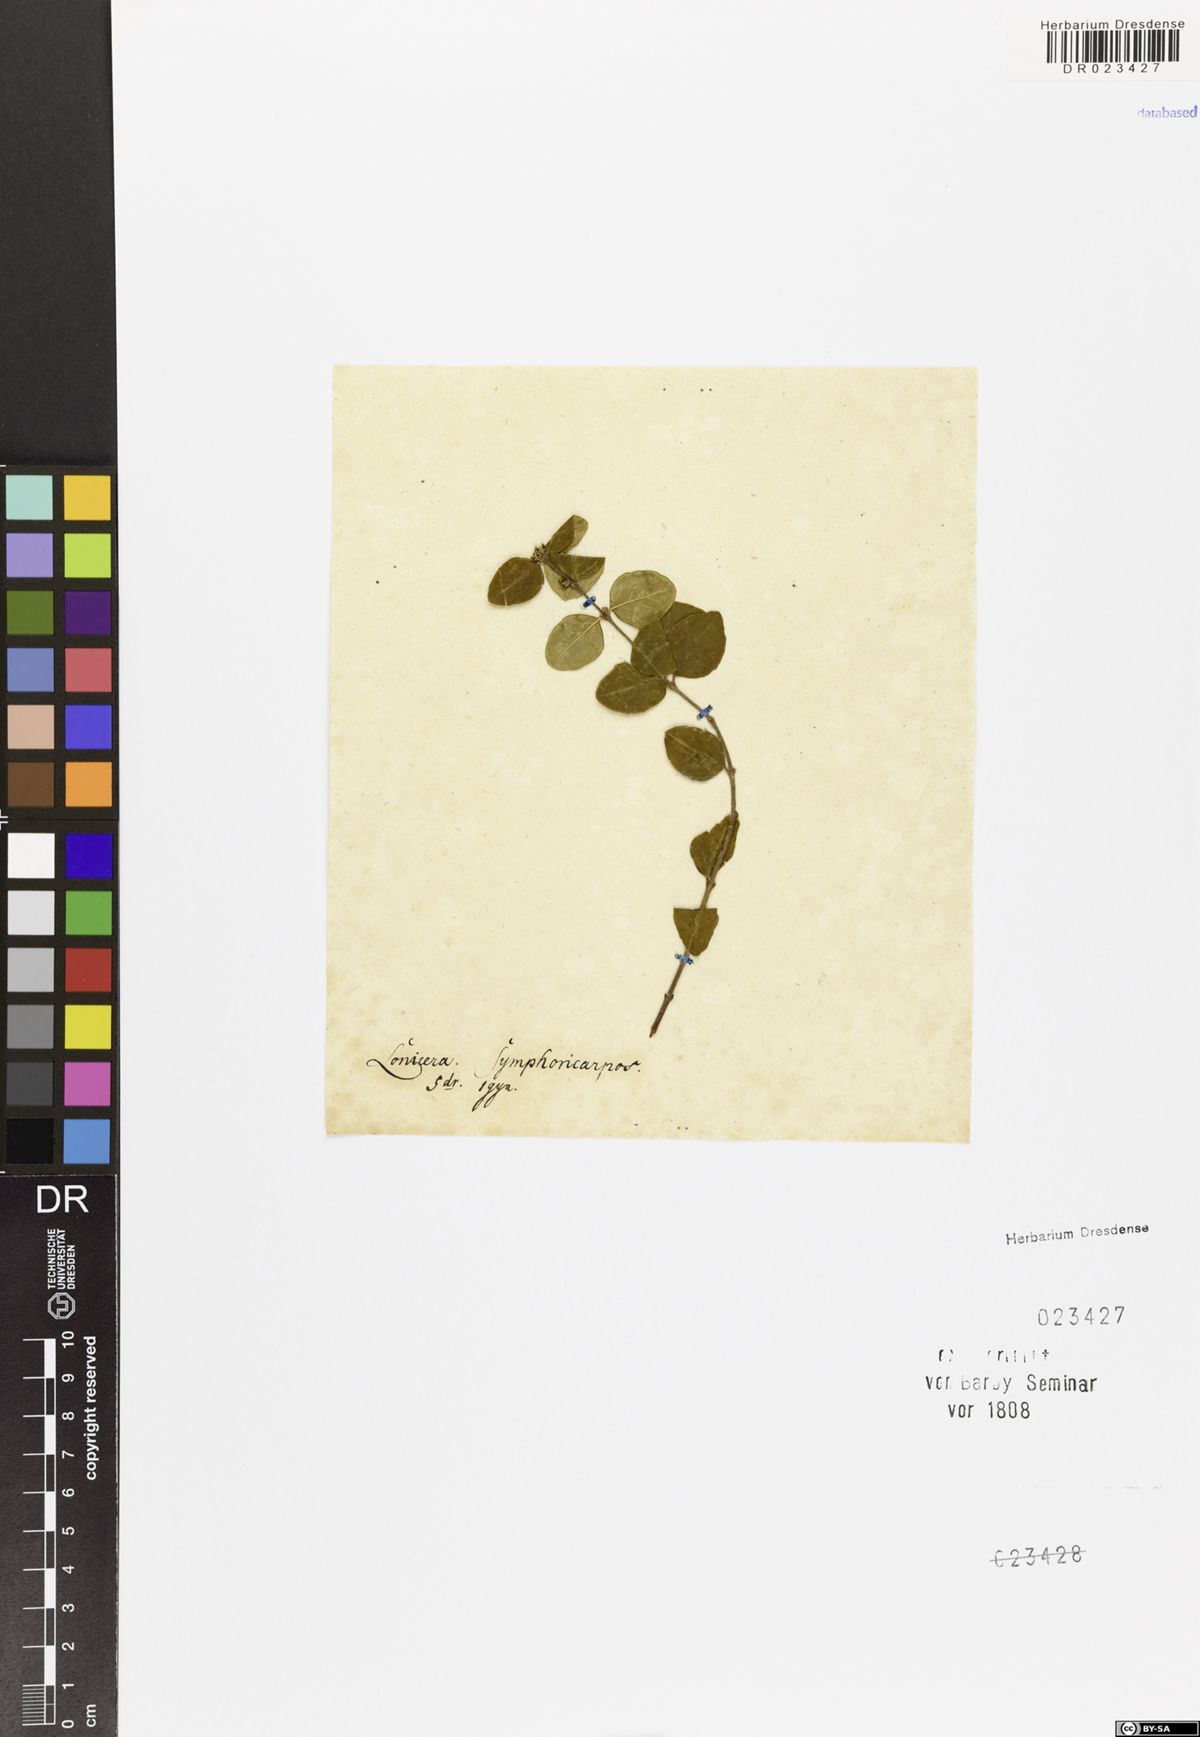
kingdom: Plantae
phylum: Tracheophyta
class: Magnoliopsida
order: Dipsacales
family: Caprifoliaceae
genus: Symphoricarpos
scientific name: Symphoricarpos albus
